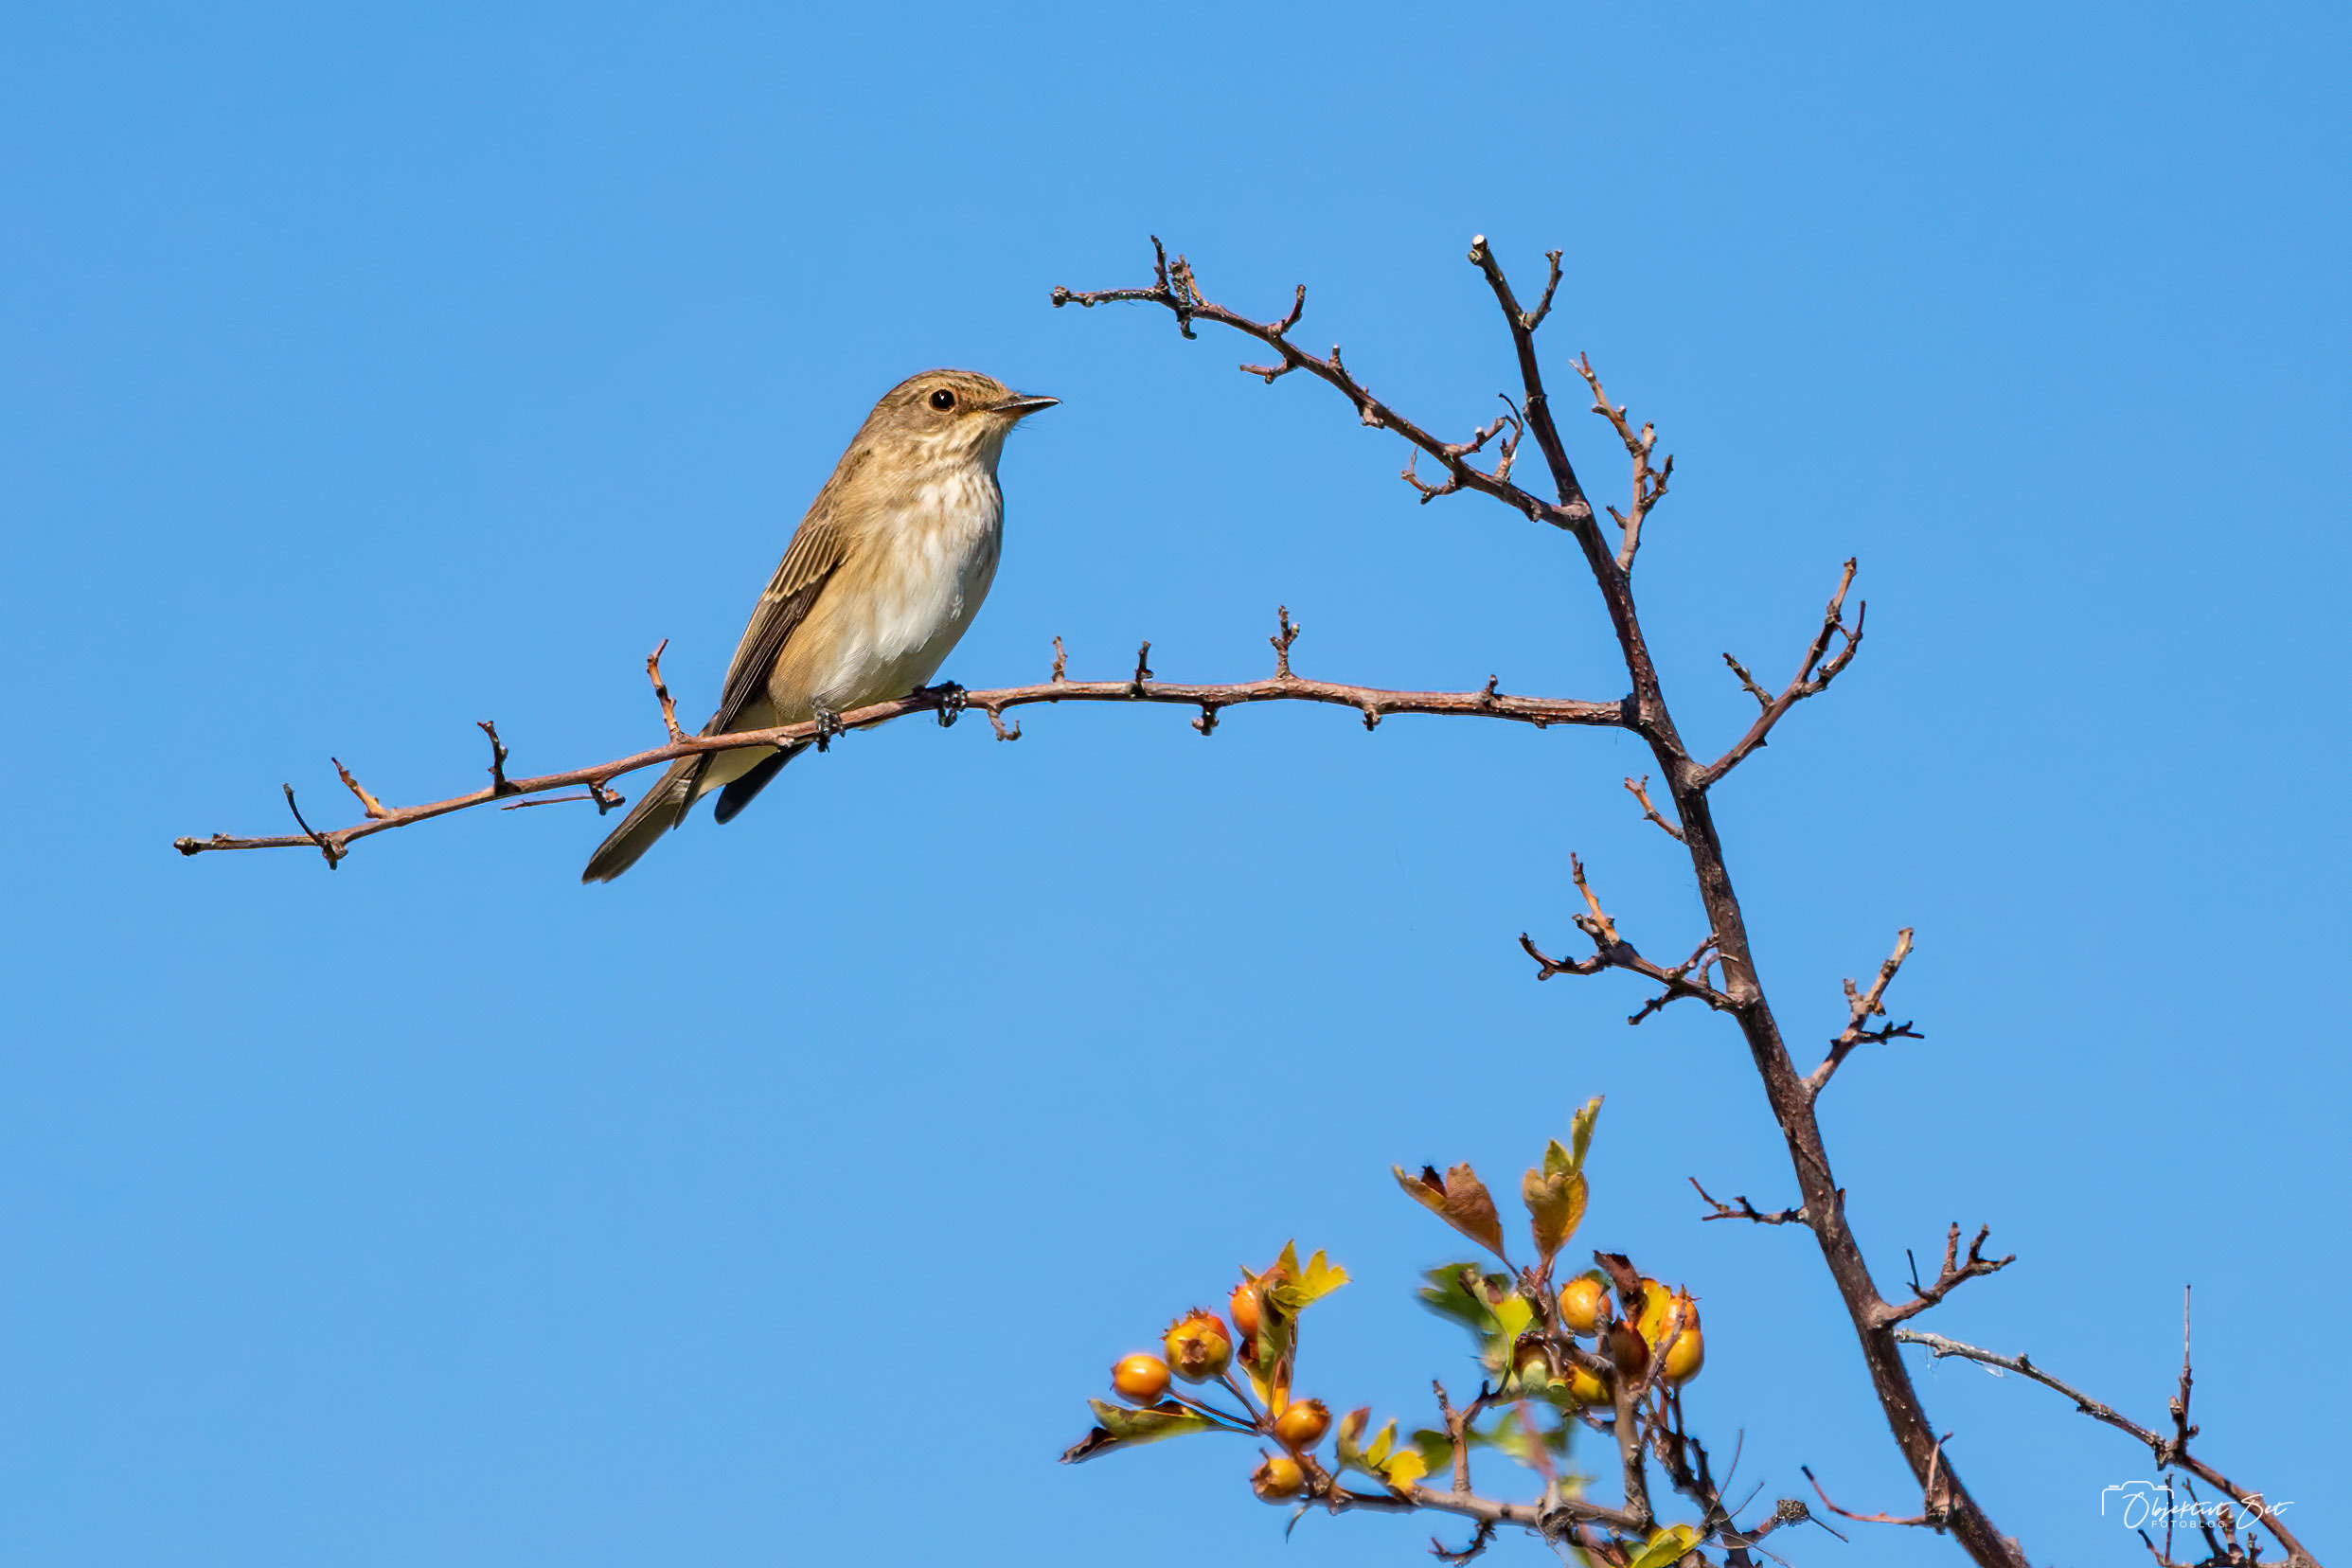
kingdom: Animalia
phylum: Chordata
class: Aves
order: Passeriformes
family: Muscicapidae
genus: Muscicapa
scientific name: Muscicapa striata
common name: Grå fluesnapper
